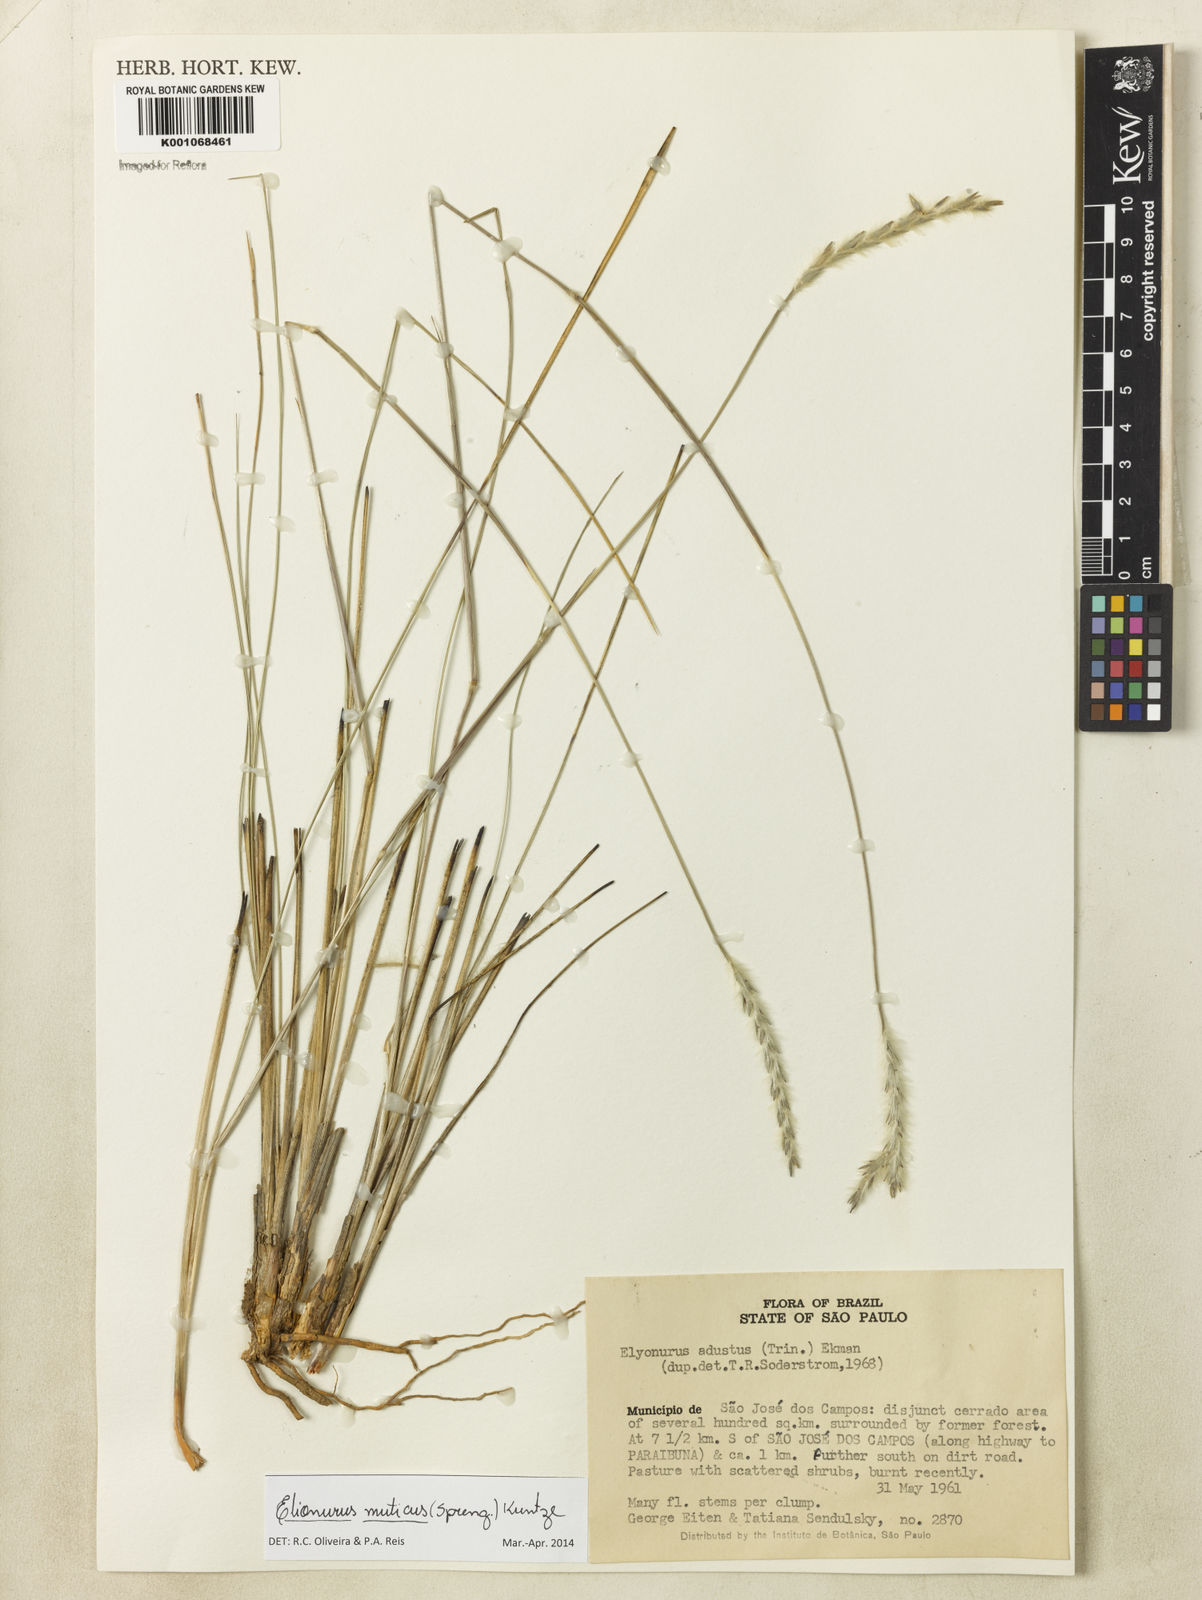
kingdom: Plantae
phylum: Tracheophyta
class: Liliopsida
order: Poales
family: Poaceae
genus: Elionurus
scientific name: Elionurus muticus
